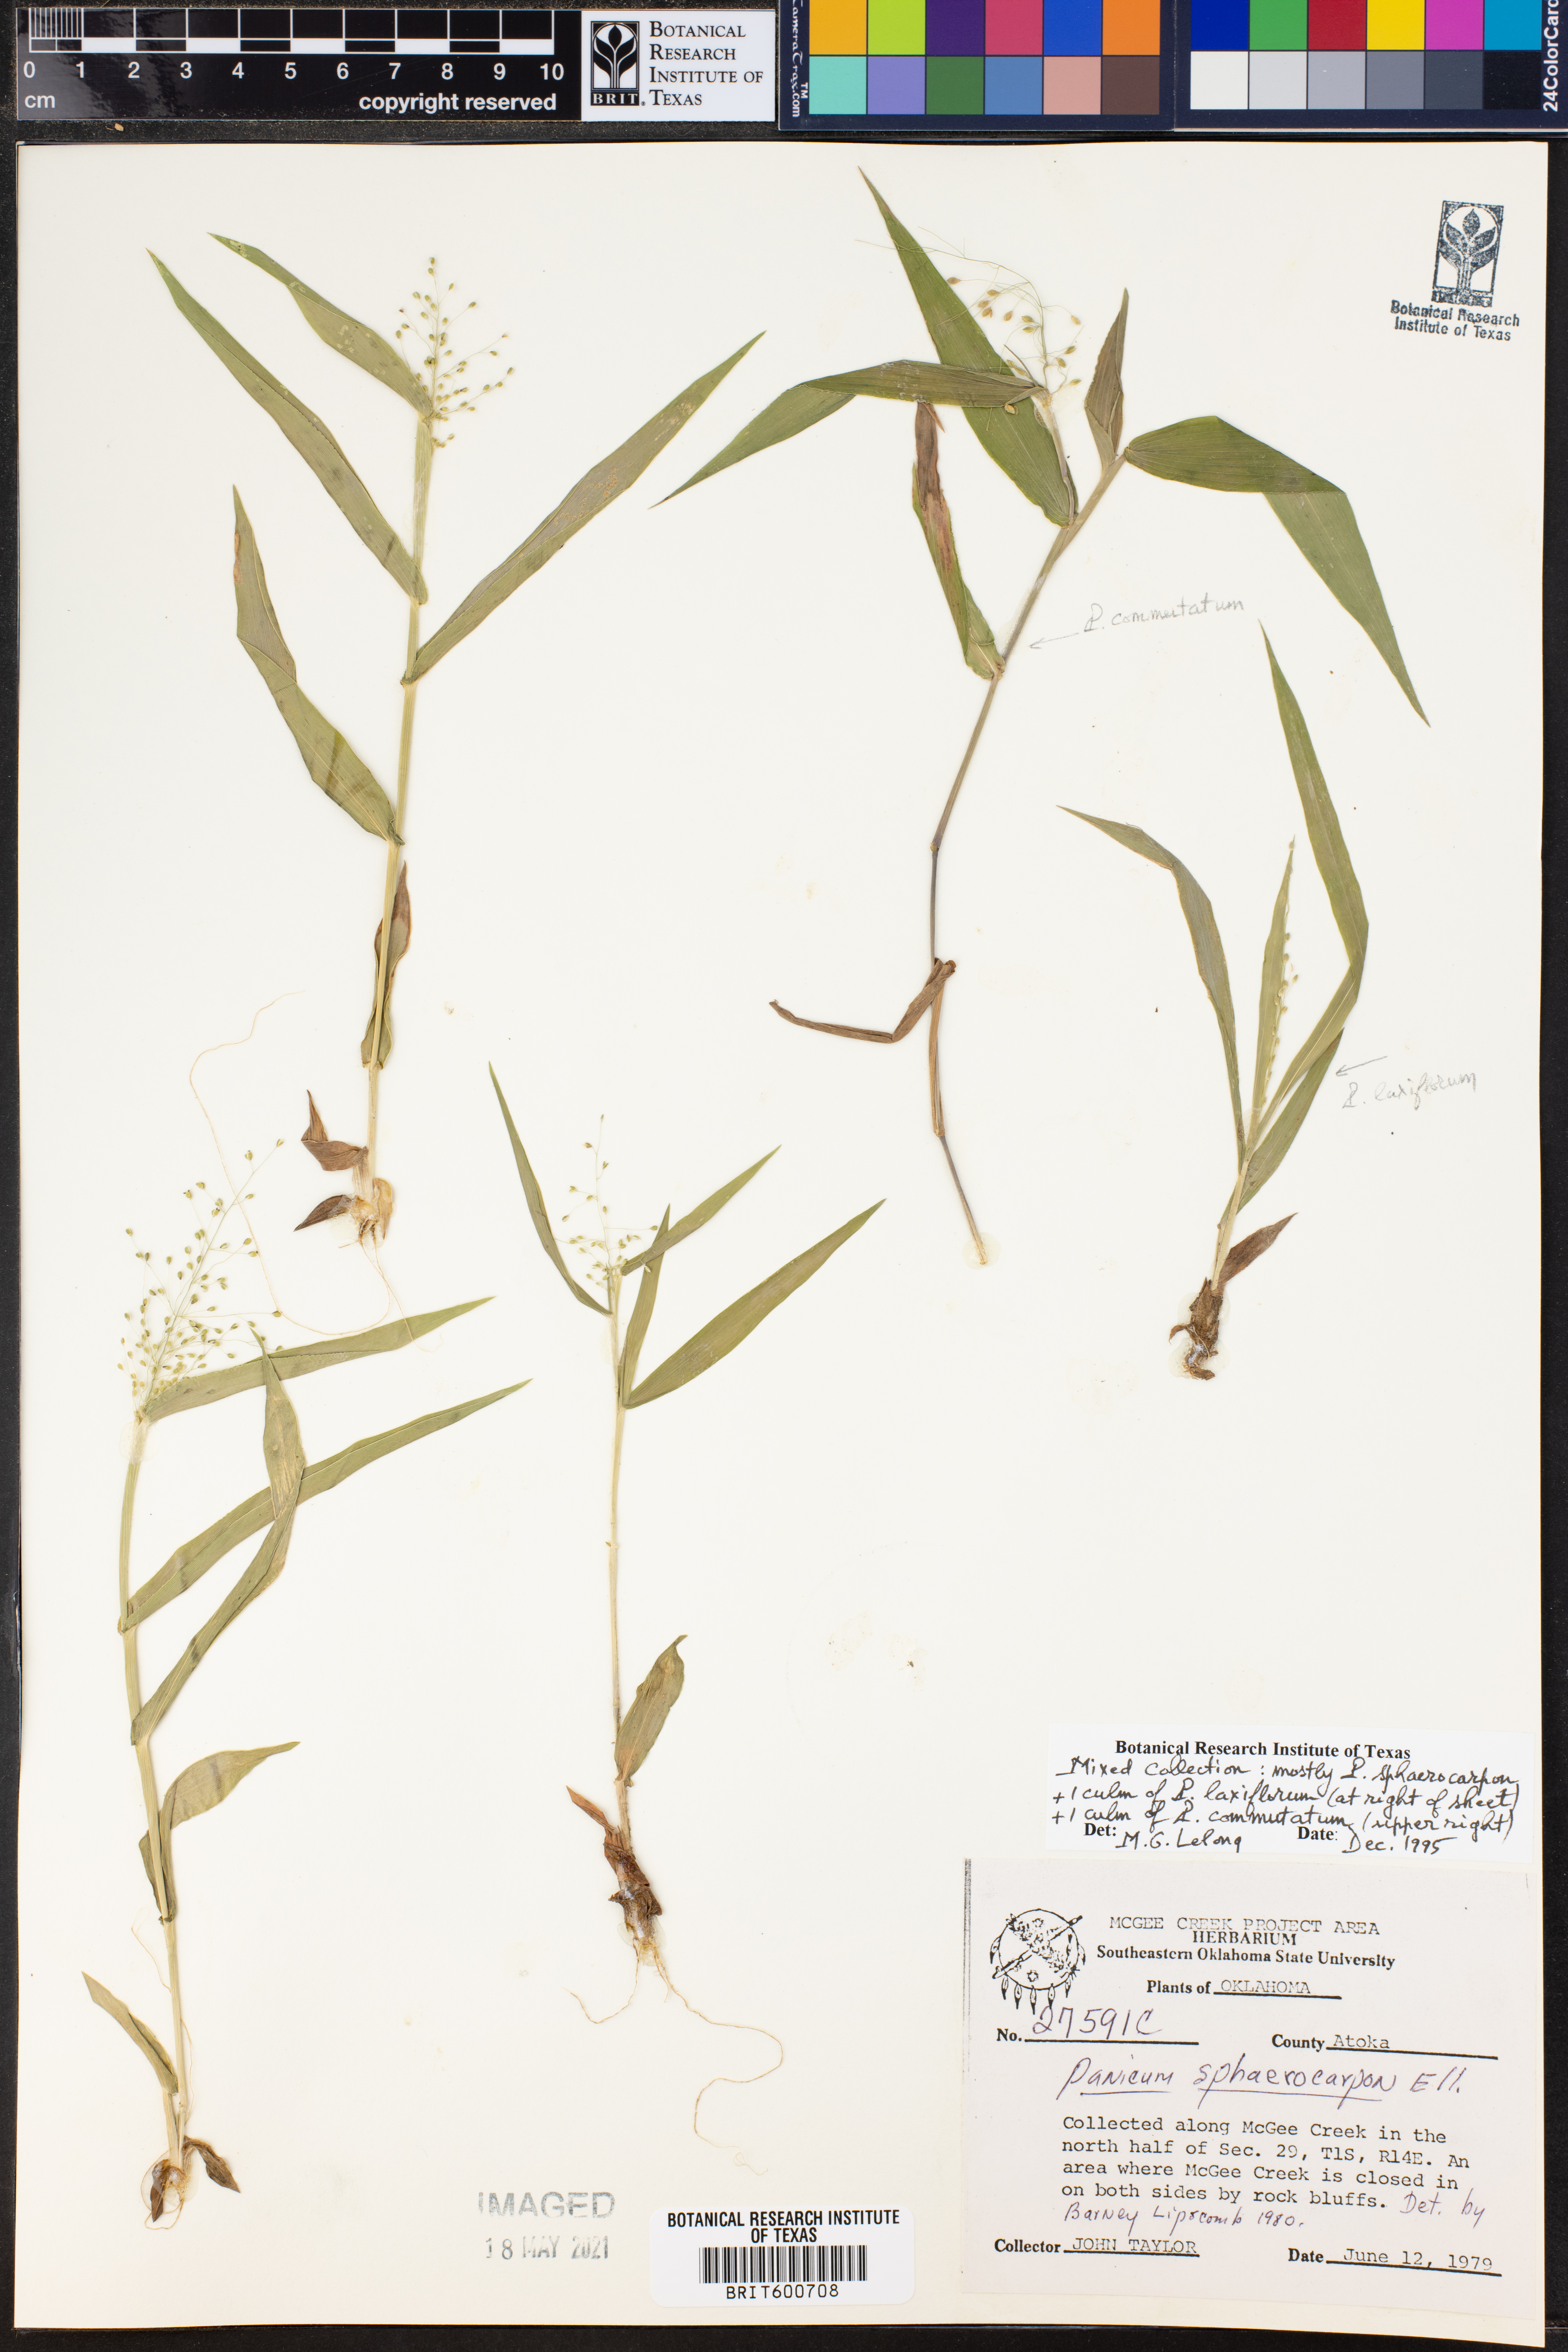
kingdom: Plantae
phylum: Tracheophyta
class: Liliopsida
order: Poales
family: Poaceae
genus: Dichanthelium
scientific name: Dichanthelium sphaerocarpon
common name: Round-fruited panicgrass
